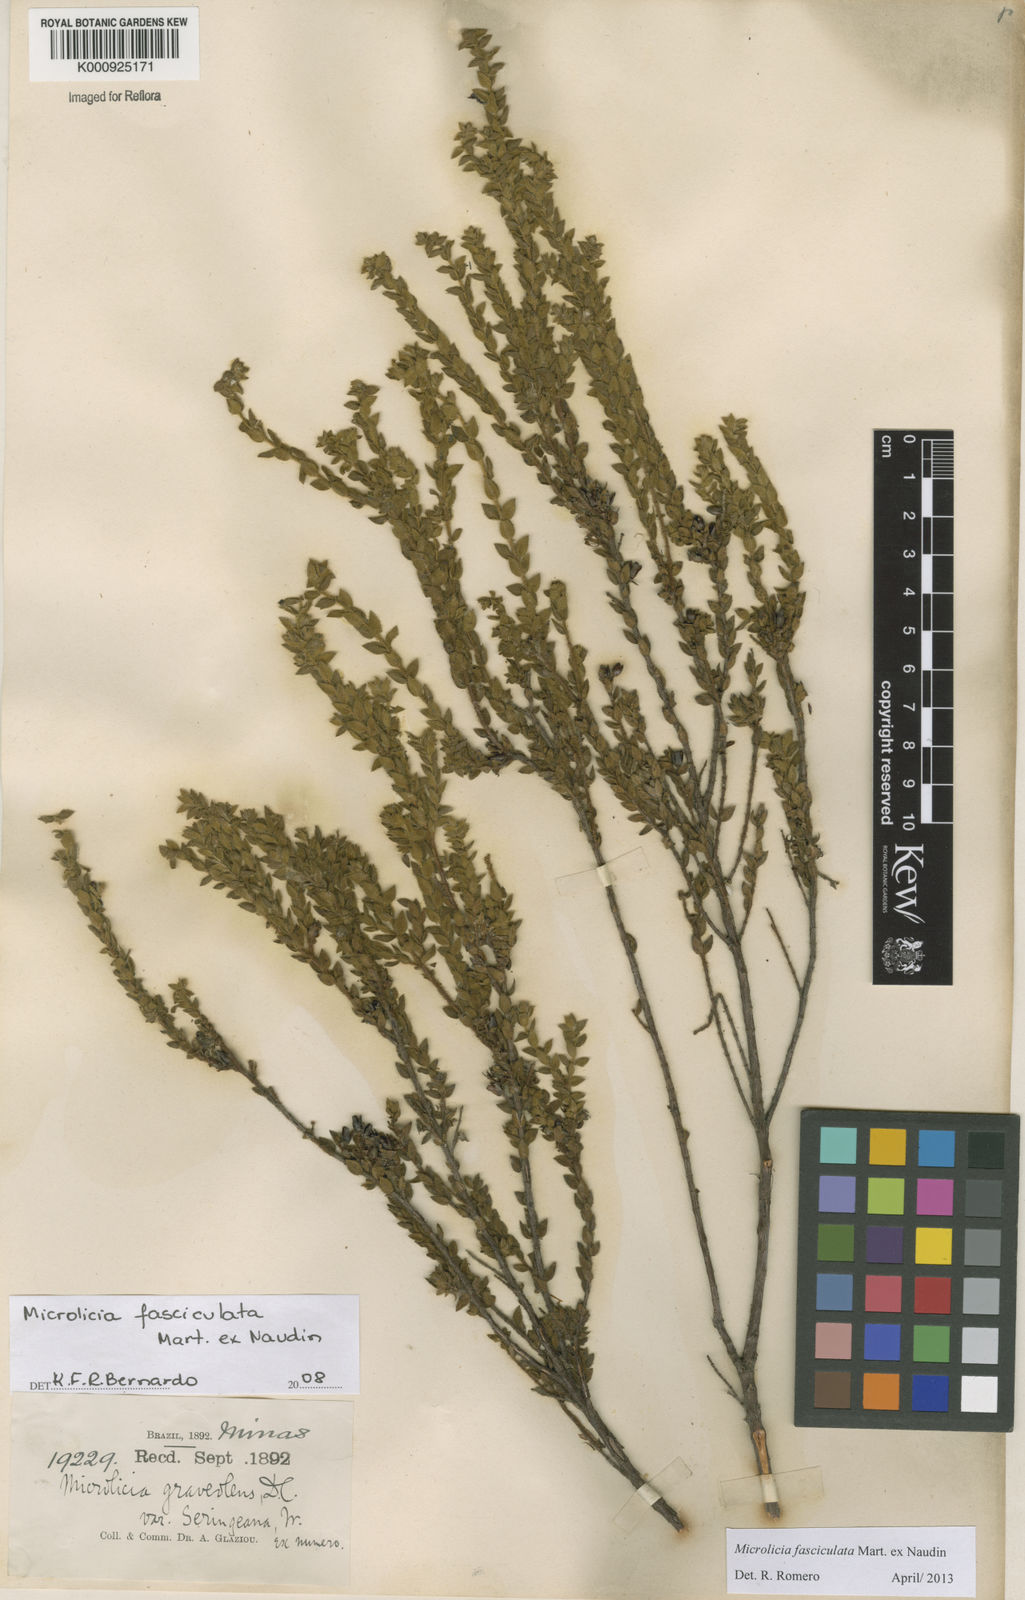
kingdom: Plantae
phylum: Tracheophyta
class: Magnoliopsida
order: Myrtales
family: Melastomataceae
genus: Microlicia
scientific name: Microlicia fasciculata
